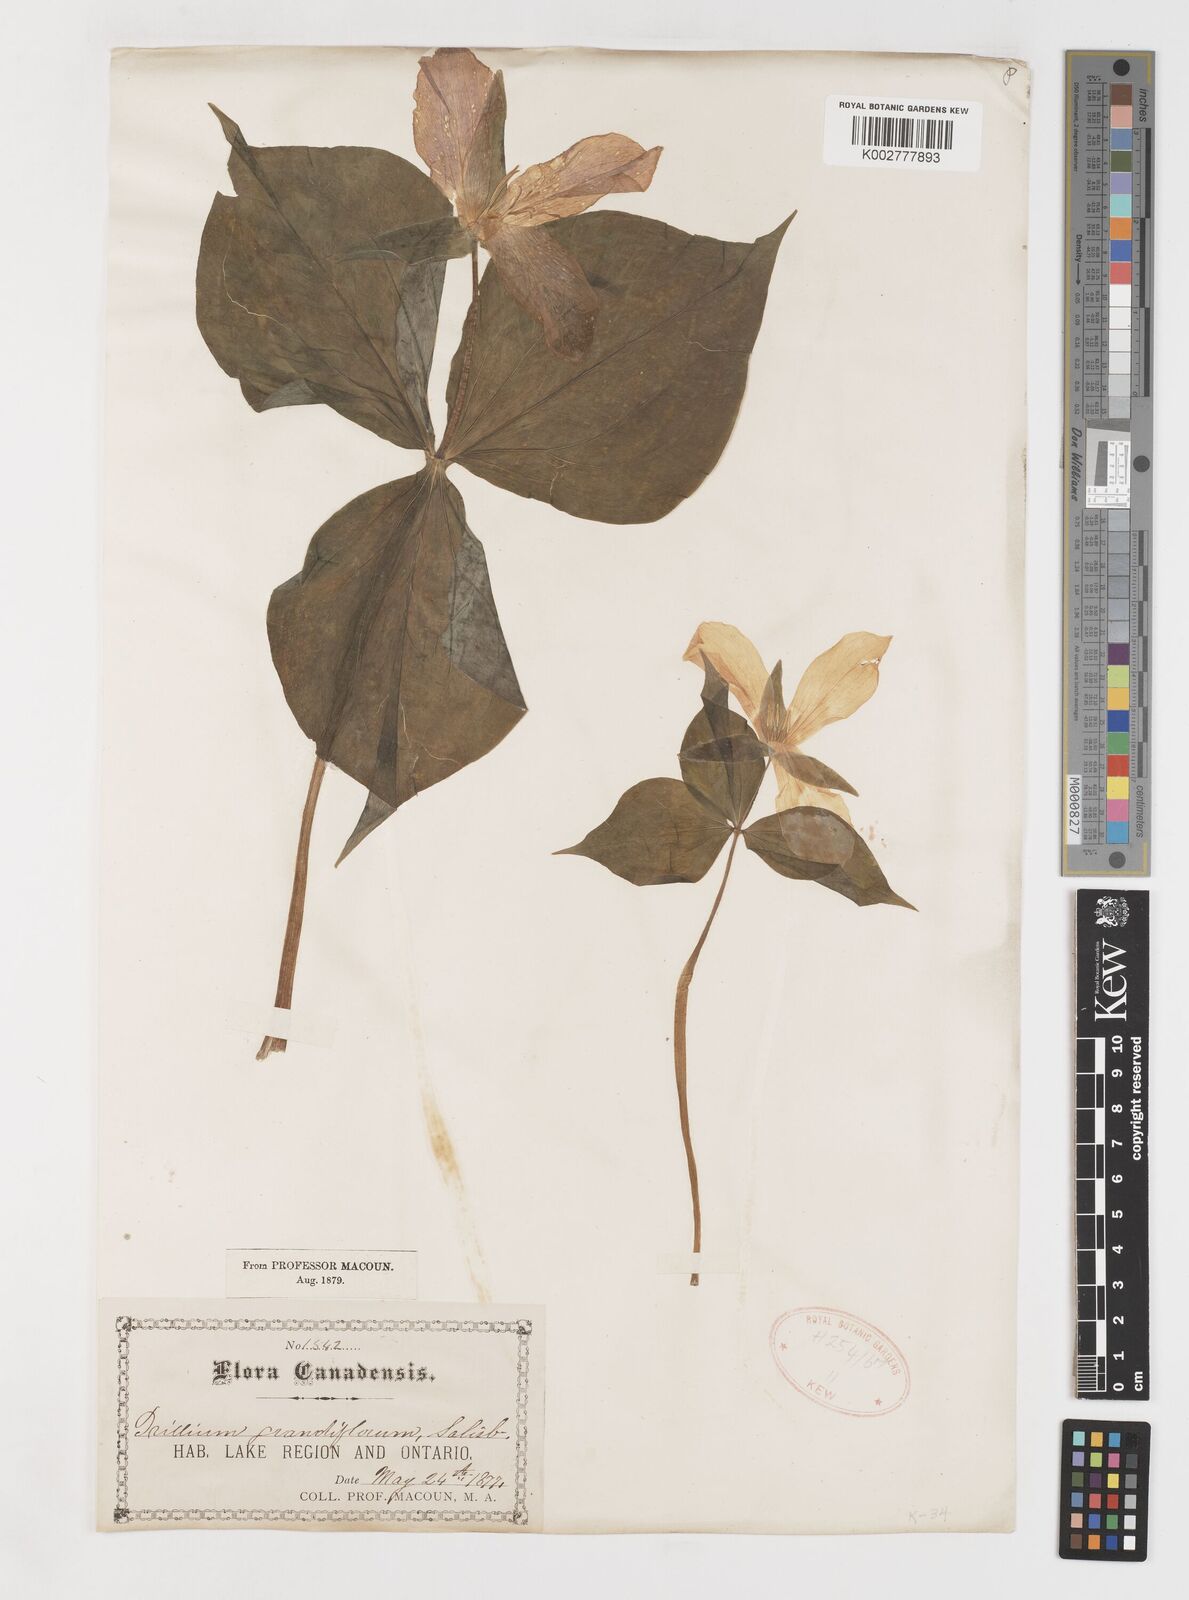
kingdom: Plantae
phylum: Tracheophyta
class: Liliopsida
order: Liliales
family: Melanthiaceae
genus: Trillium
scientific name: Trillium grandiflorum
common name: Great white trillium
